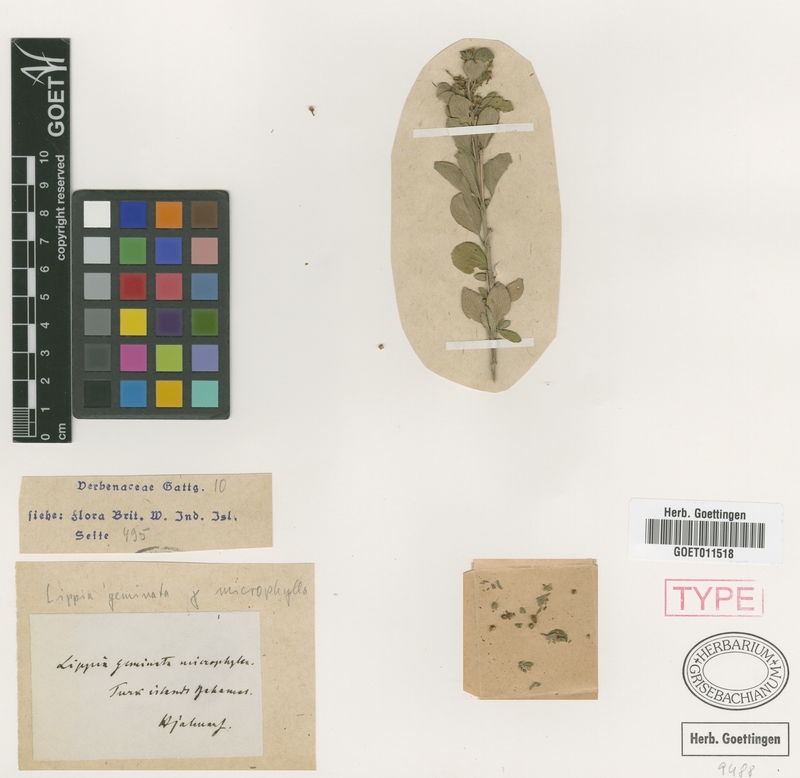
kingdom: Plantae
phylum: Tracheophyta
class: Magnoliopsida
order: Lamiales
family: Verbenaceae
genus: Lippia
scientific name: Lippia alba
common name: Bushy matgrass
